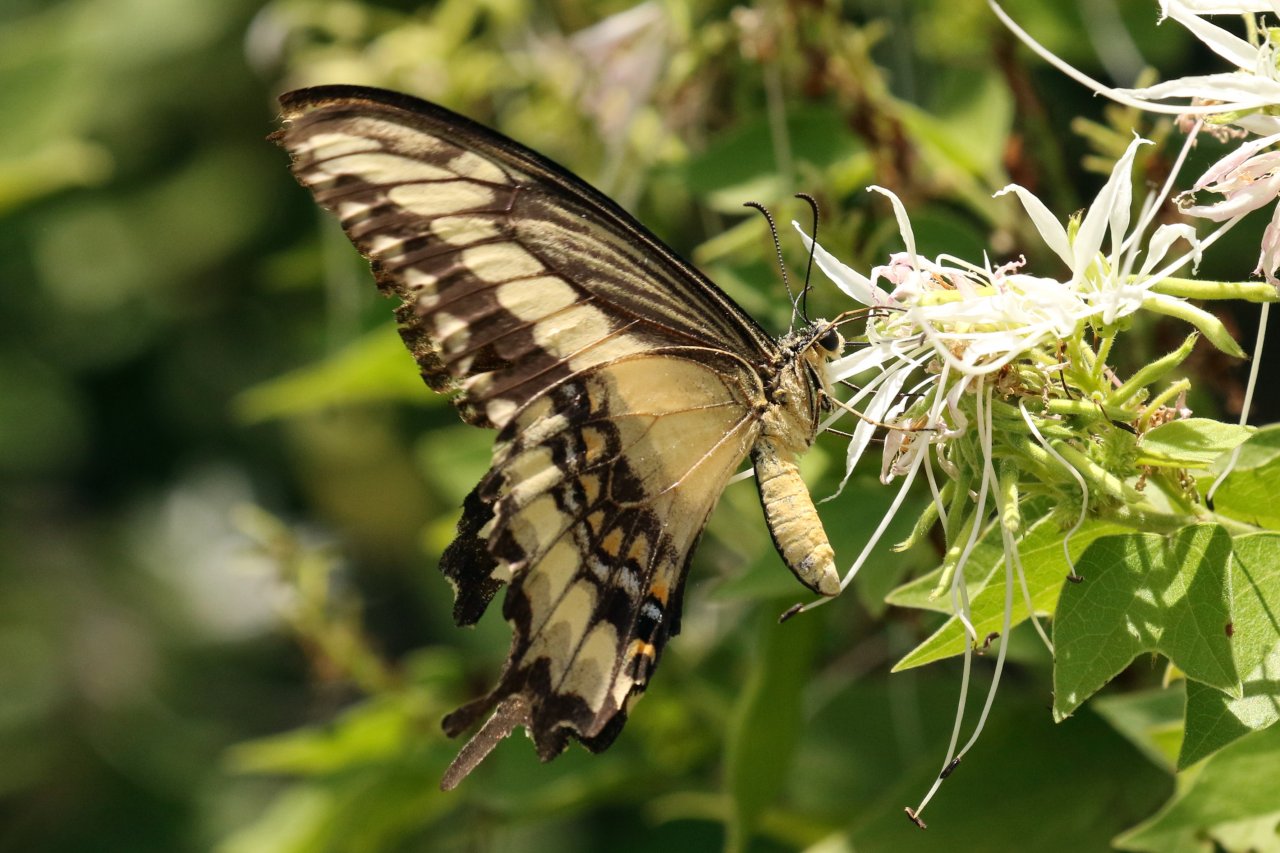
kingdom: Animalia
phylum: Arthropoda
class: Insecta
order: Lepidoptera
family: Papilionidae
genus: Papilio
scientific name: Papilio ornythion
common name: Ornythion Swallowtail
